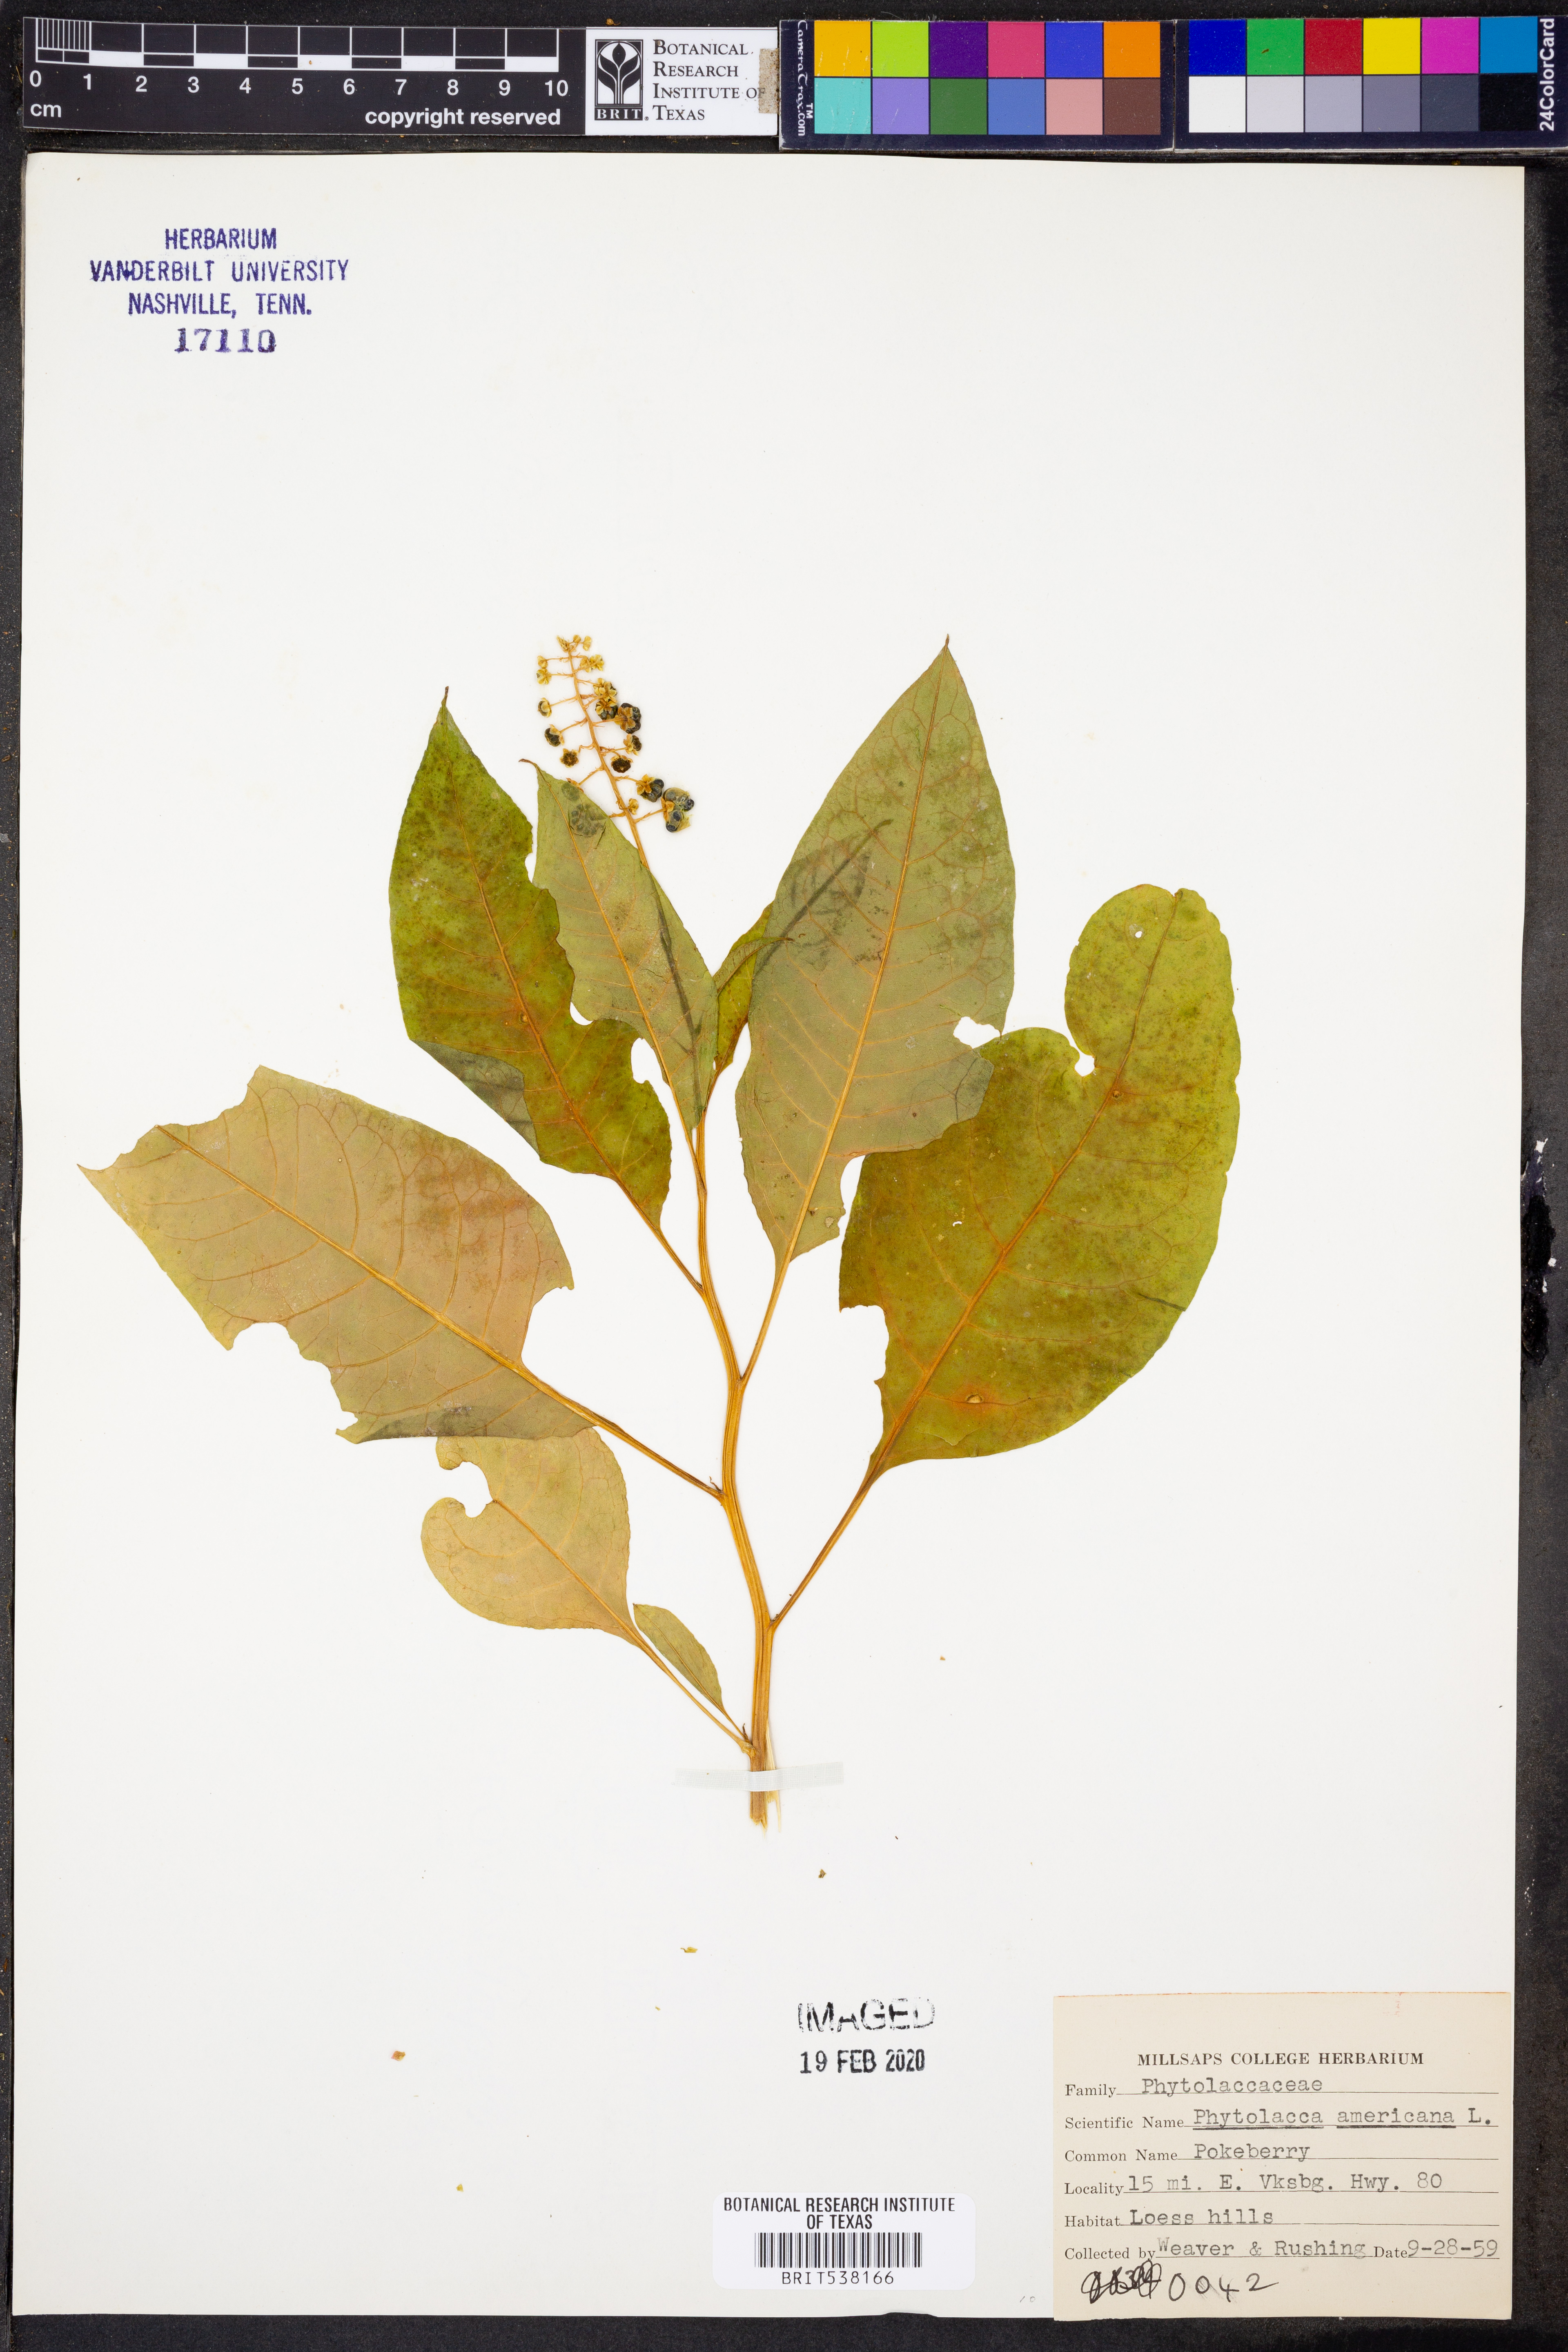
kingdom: Plantae
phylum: Tracheophyta
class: Magnoliopsida
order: Caryophyllales
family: Phytolaccaceae
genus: Phytolacca
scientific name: Phytolacca americana
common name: American pokeweed
